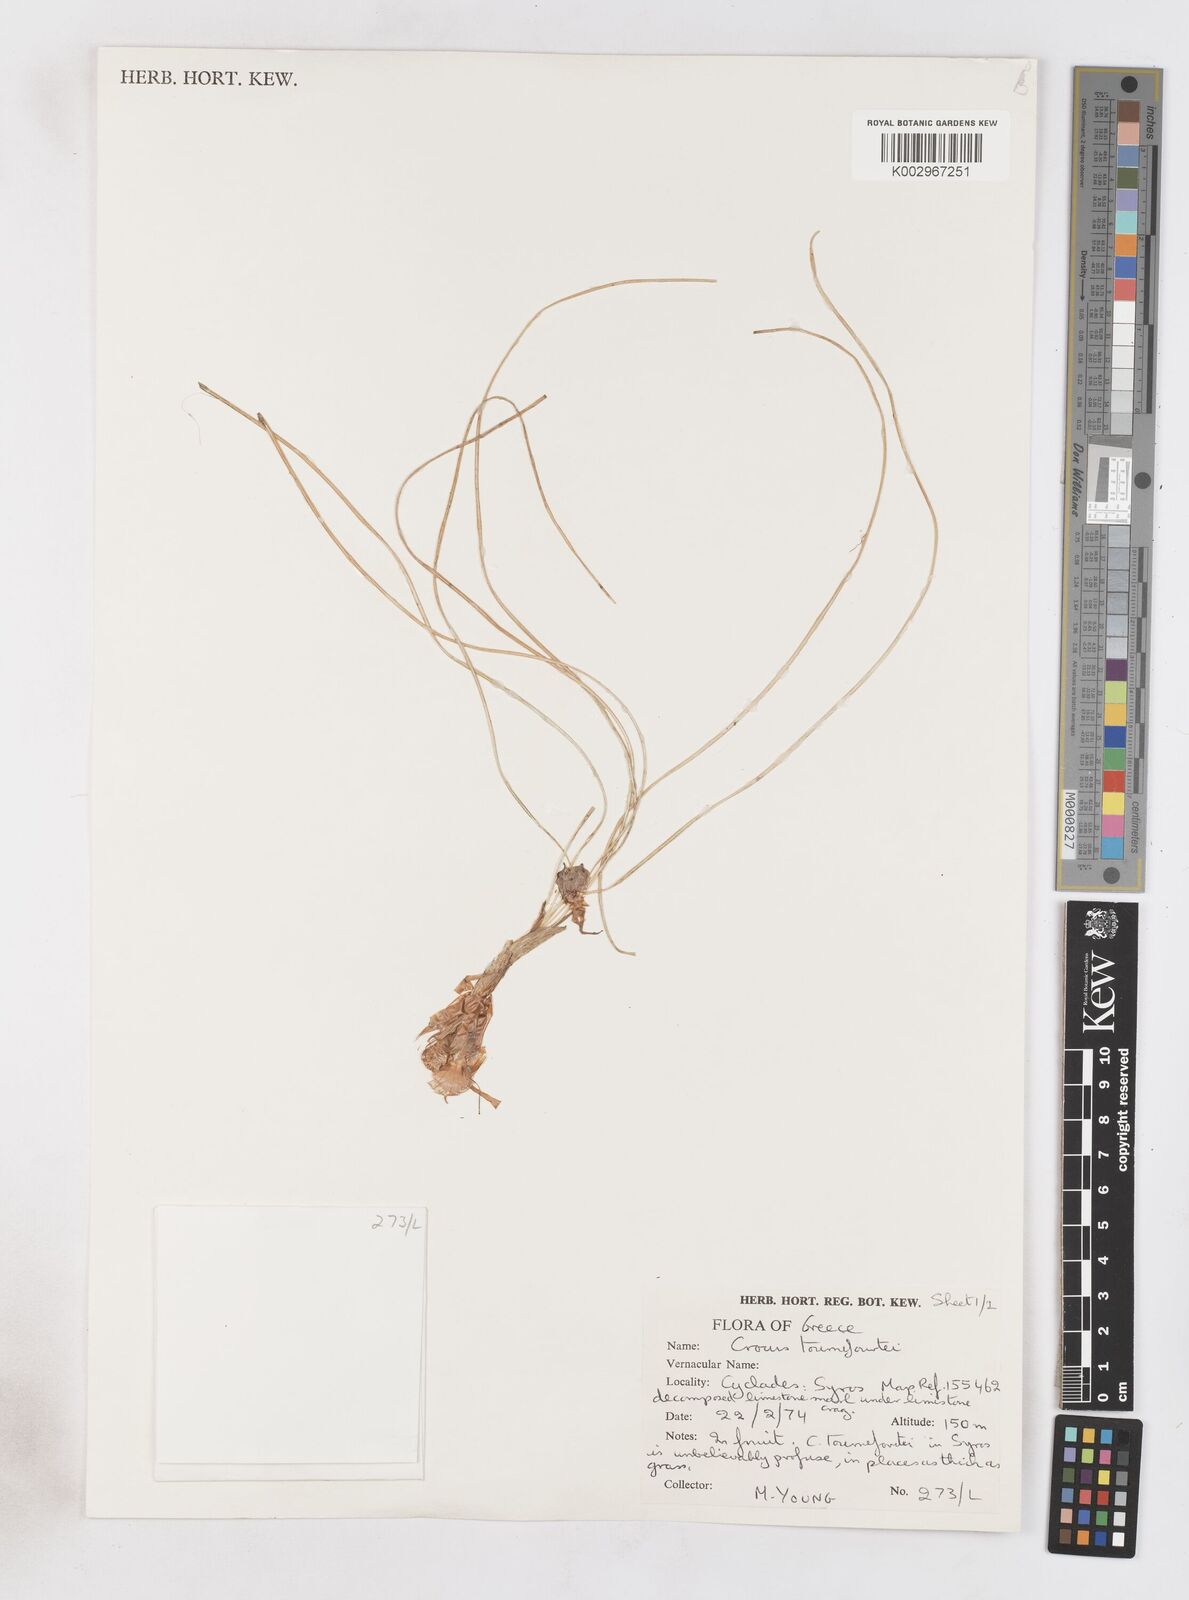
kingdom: Plantae
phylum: Tracheophyta
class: Liliopsida
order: Asparagales
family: Iridaceae
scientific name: Iridaceae
